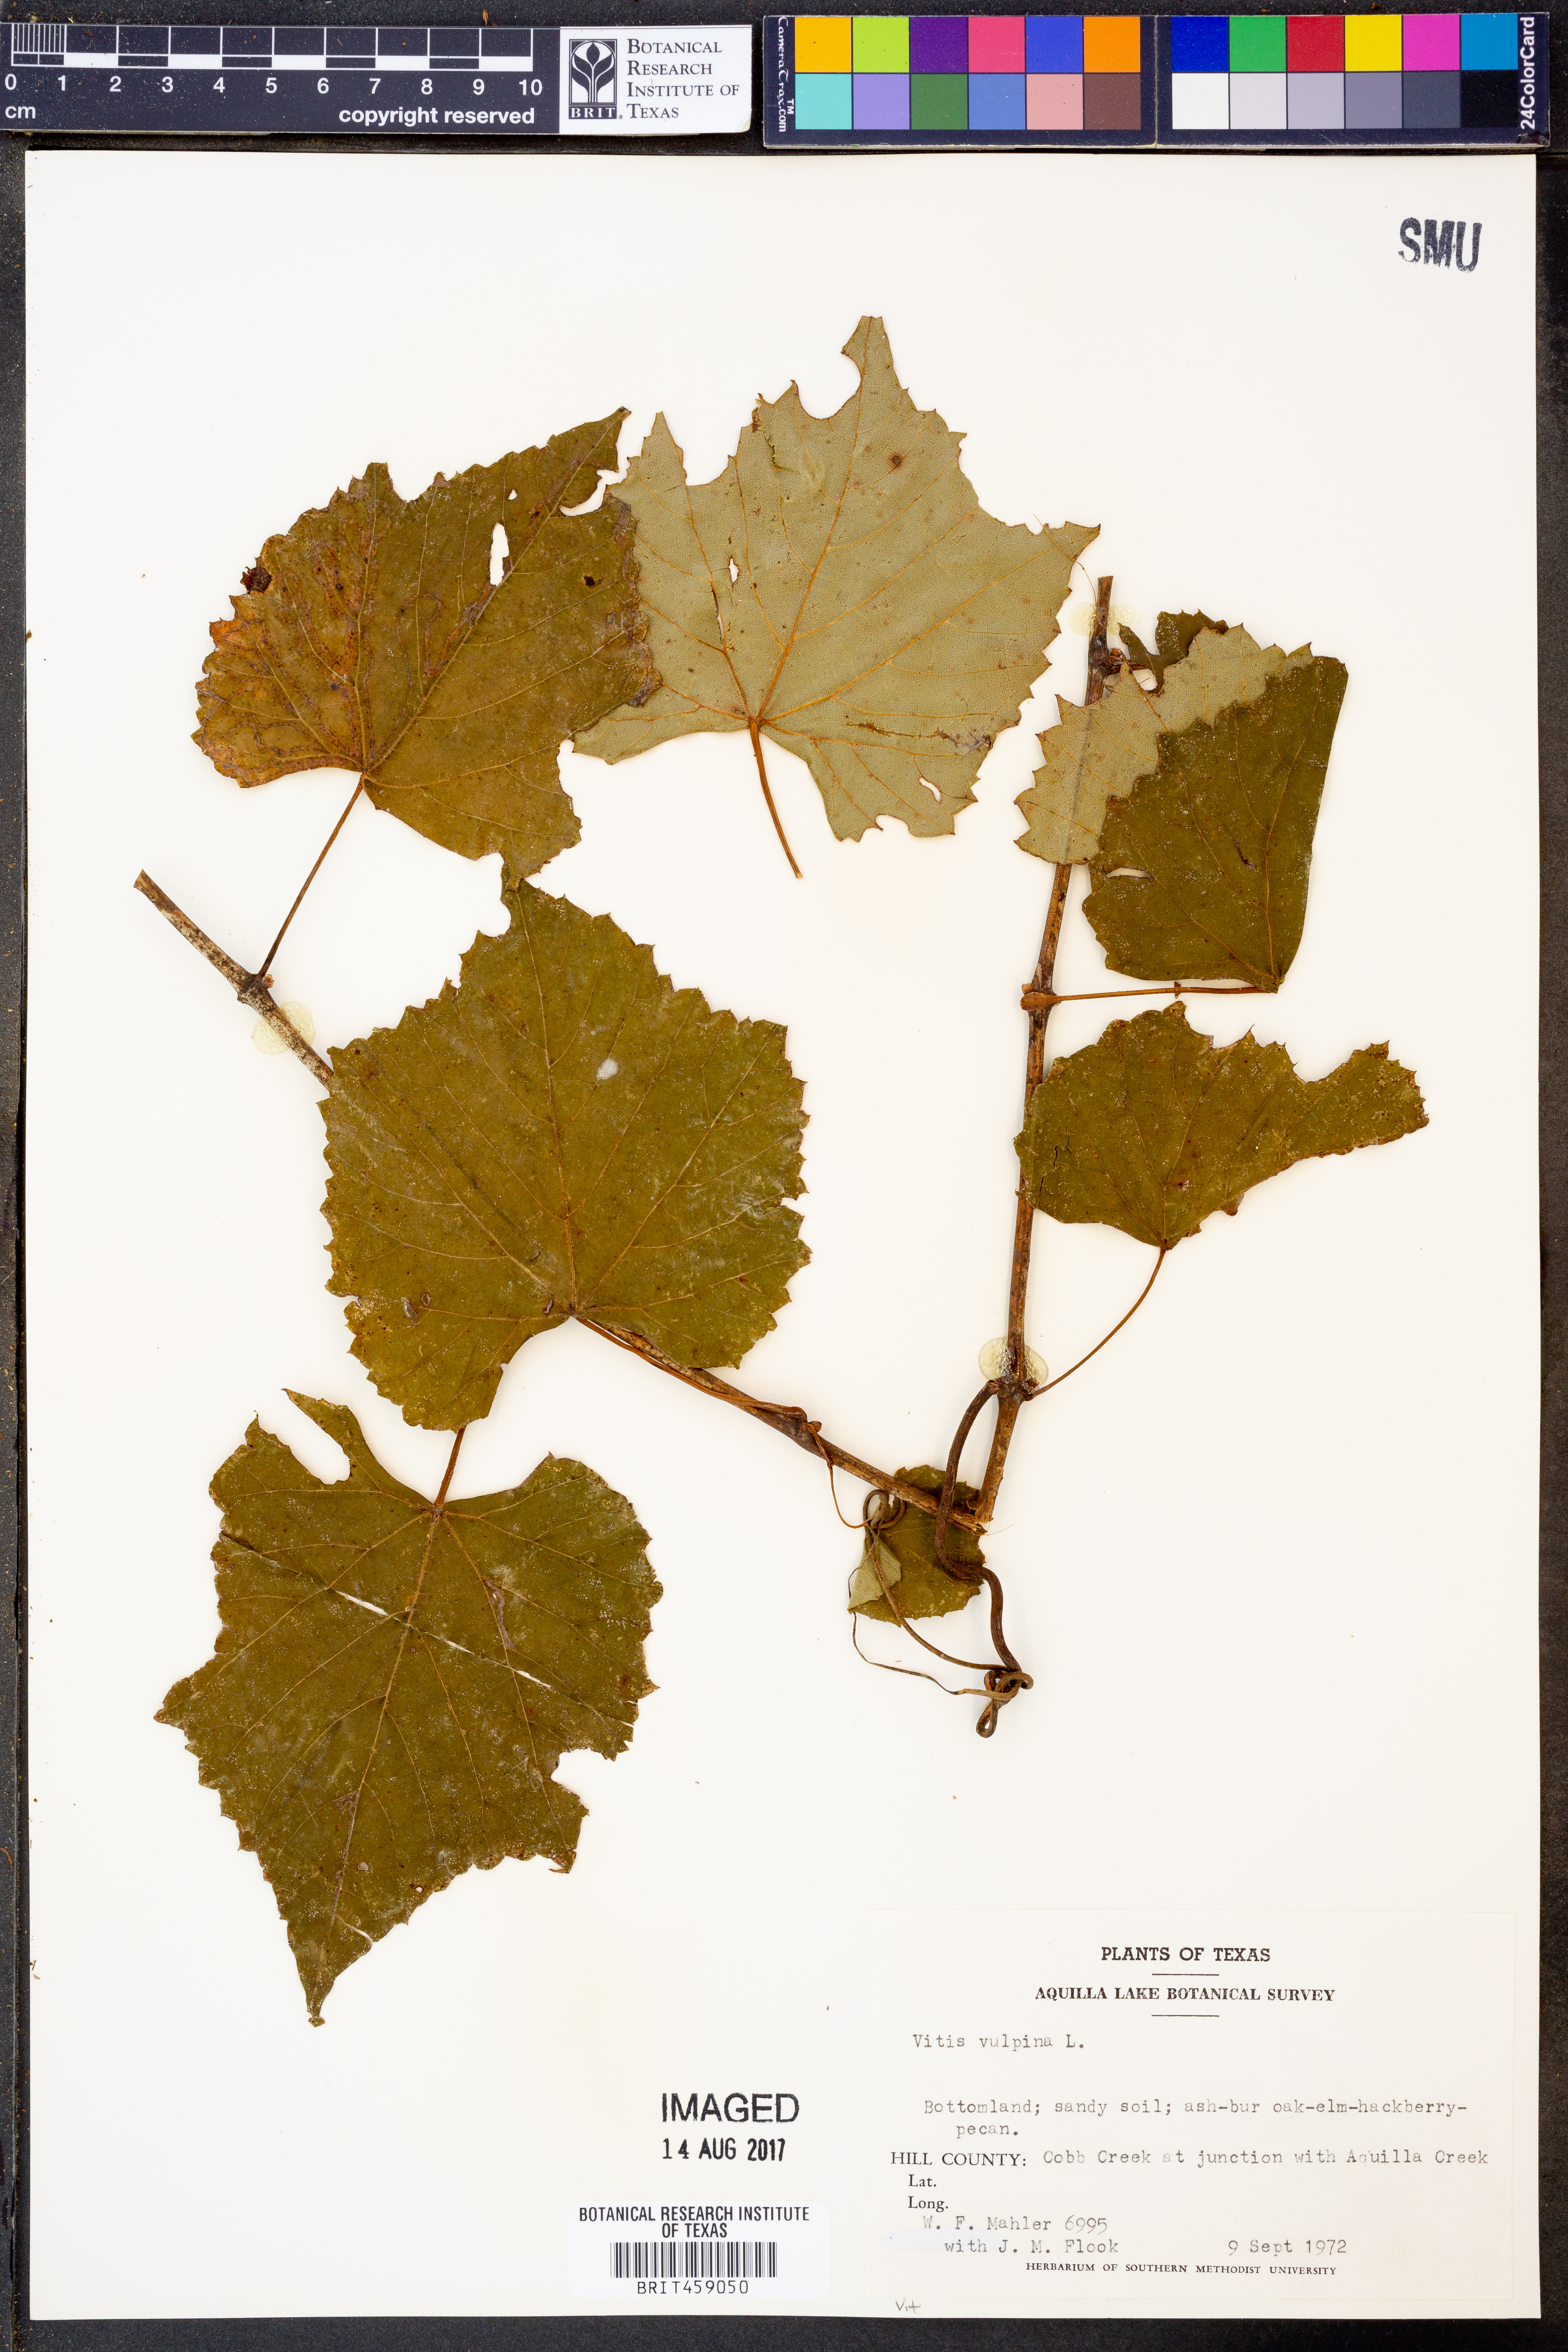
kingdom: Plantae
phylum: Tracheophyta
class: Magnoliopsida
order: Vitales
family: Vitaceae
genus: Vitis
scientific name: Vitis vulpina
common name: Frost grape
